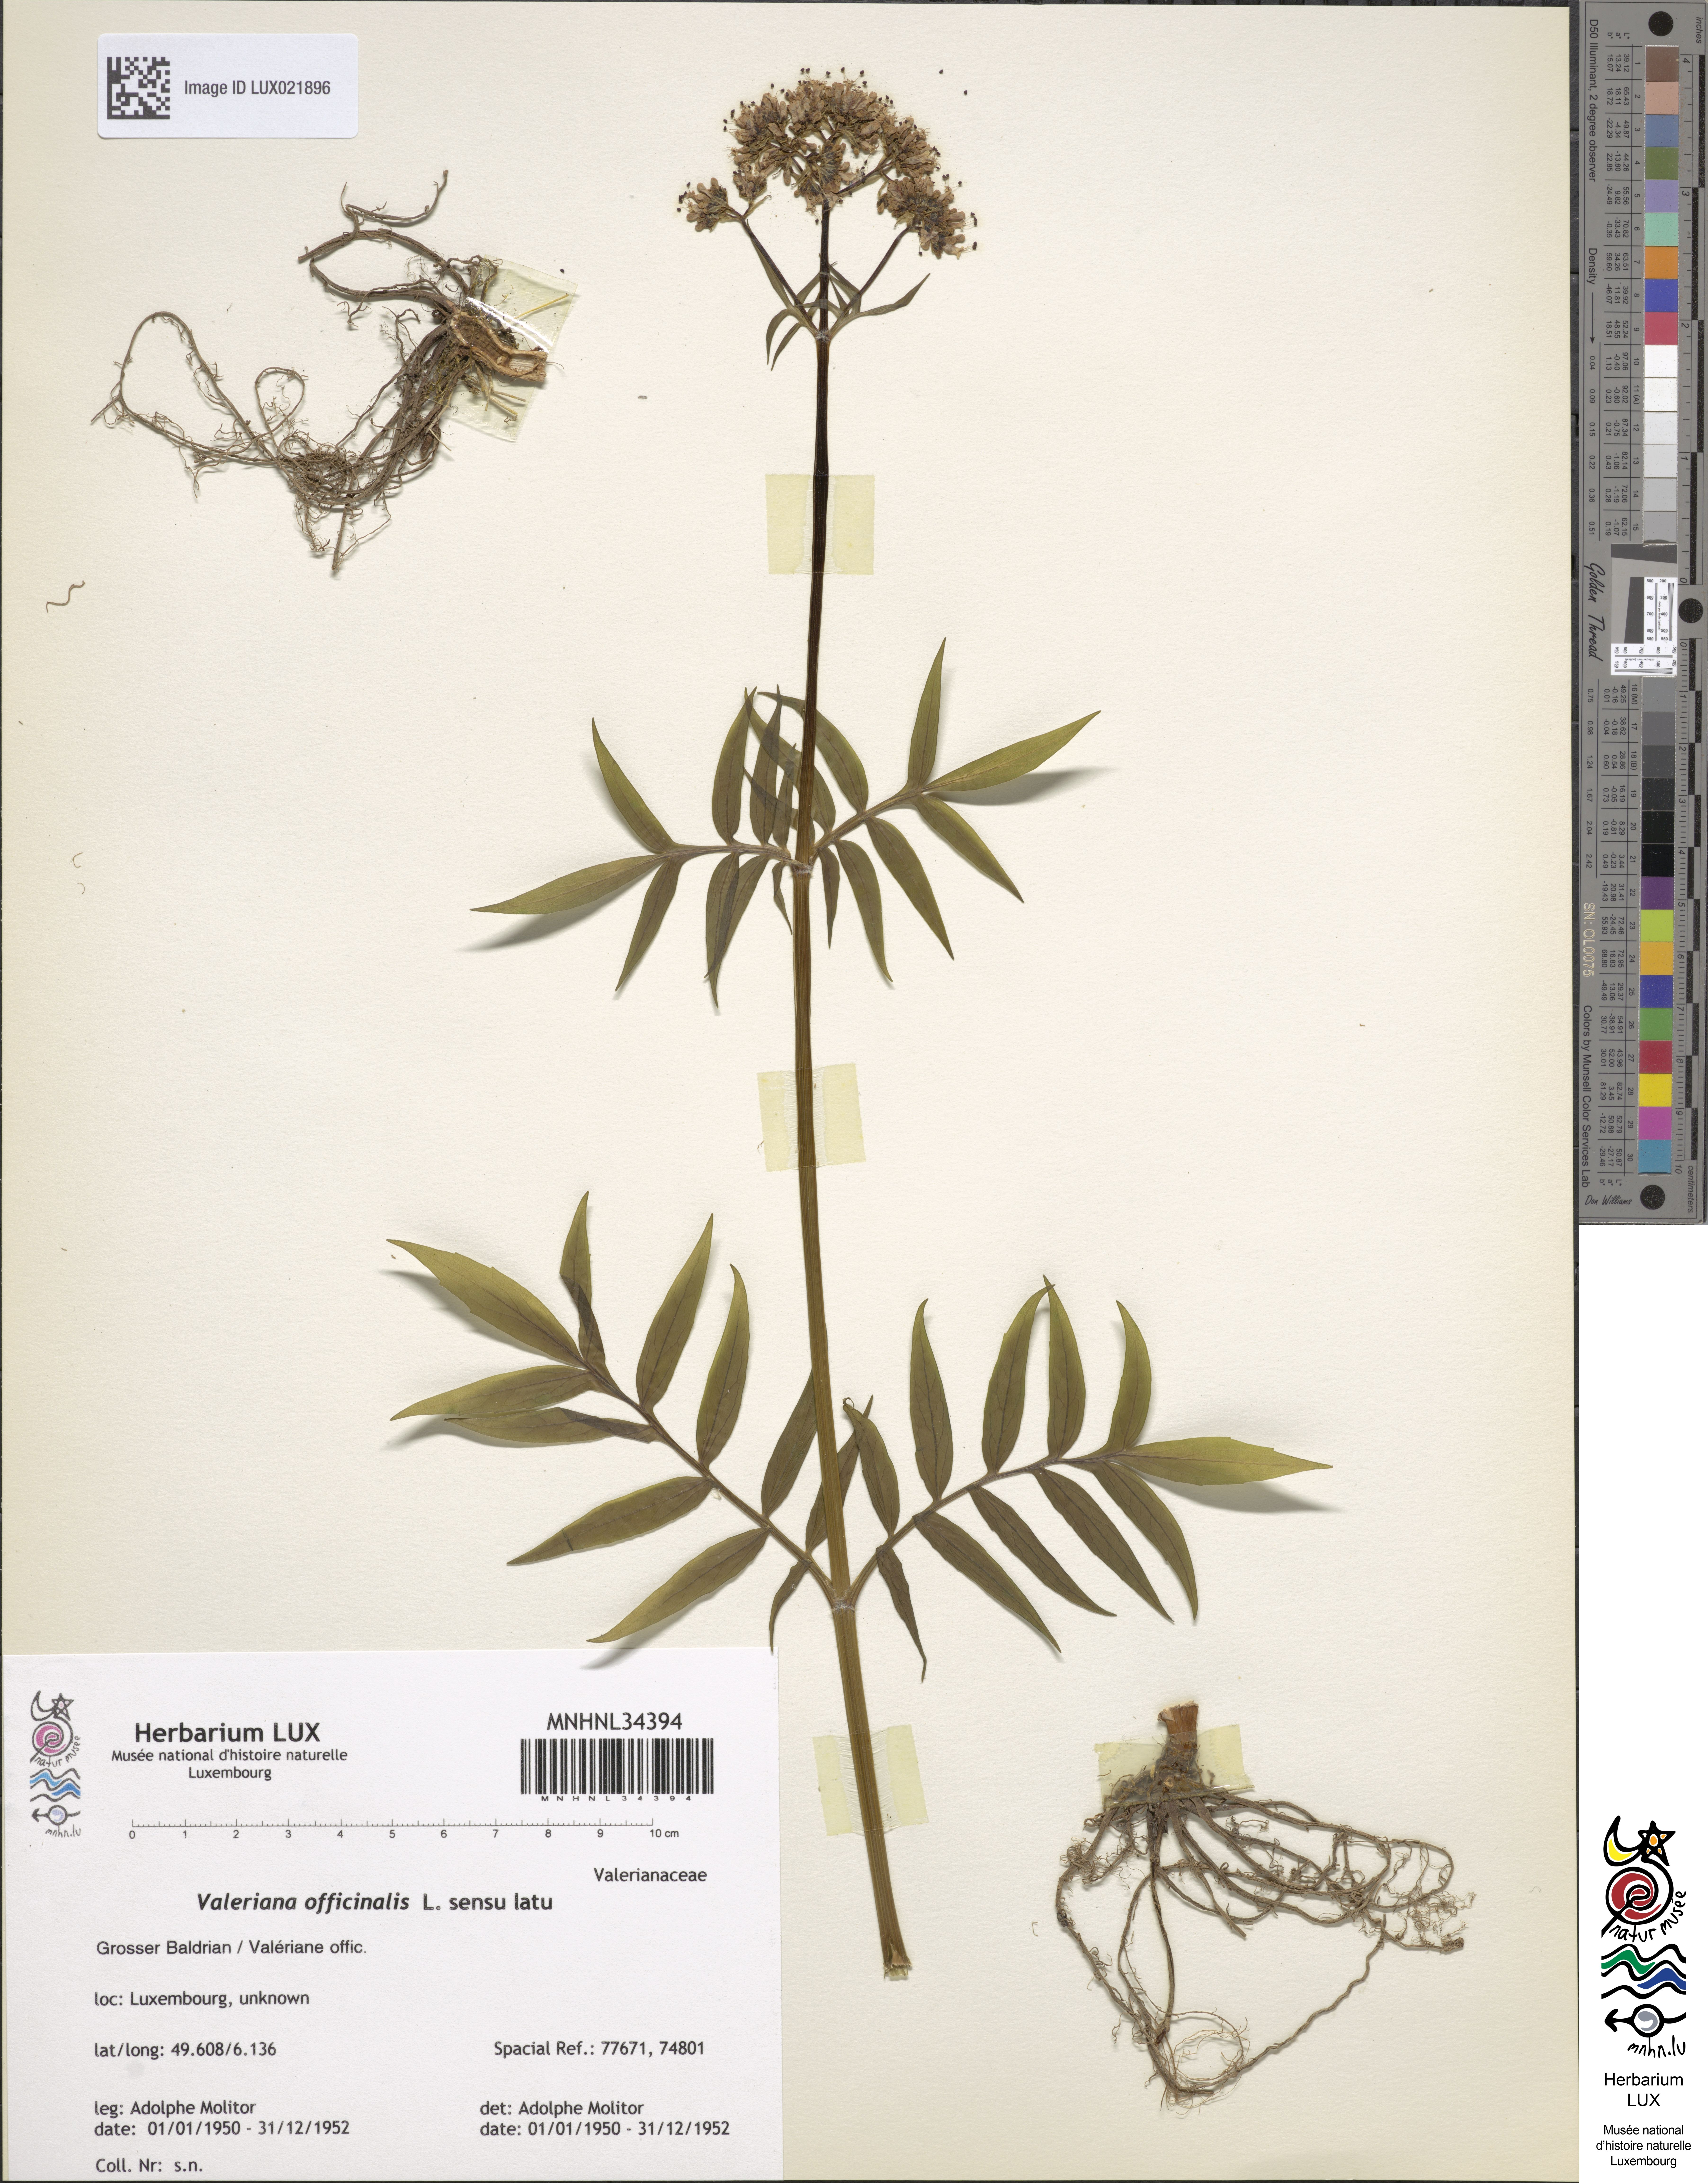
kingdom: Plantae
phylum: Tracheophyta
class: Magnoliopsida
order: Dipsacales
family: Caprifoliaceae
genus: Valeriana
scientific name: Valeriana officinalis
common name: Common valerian
